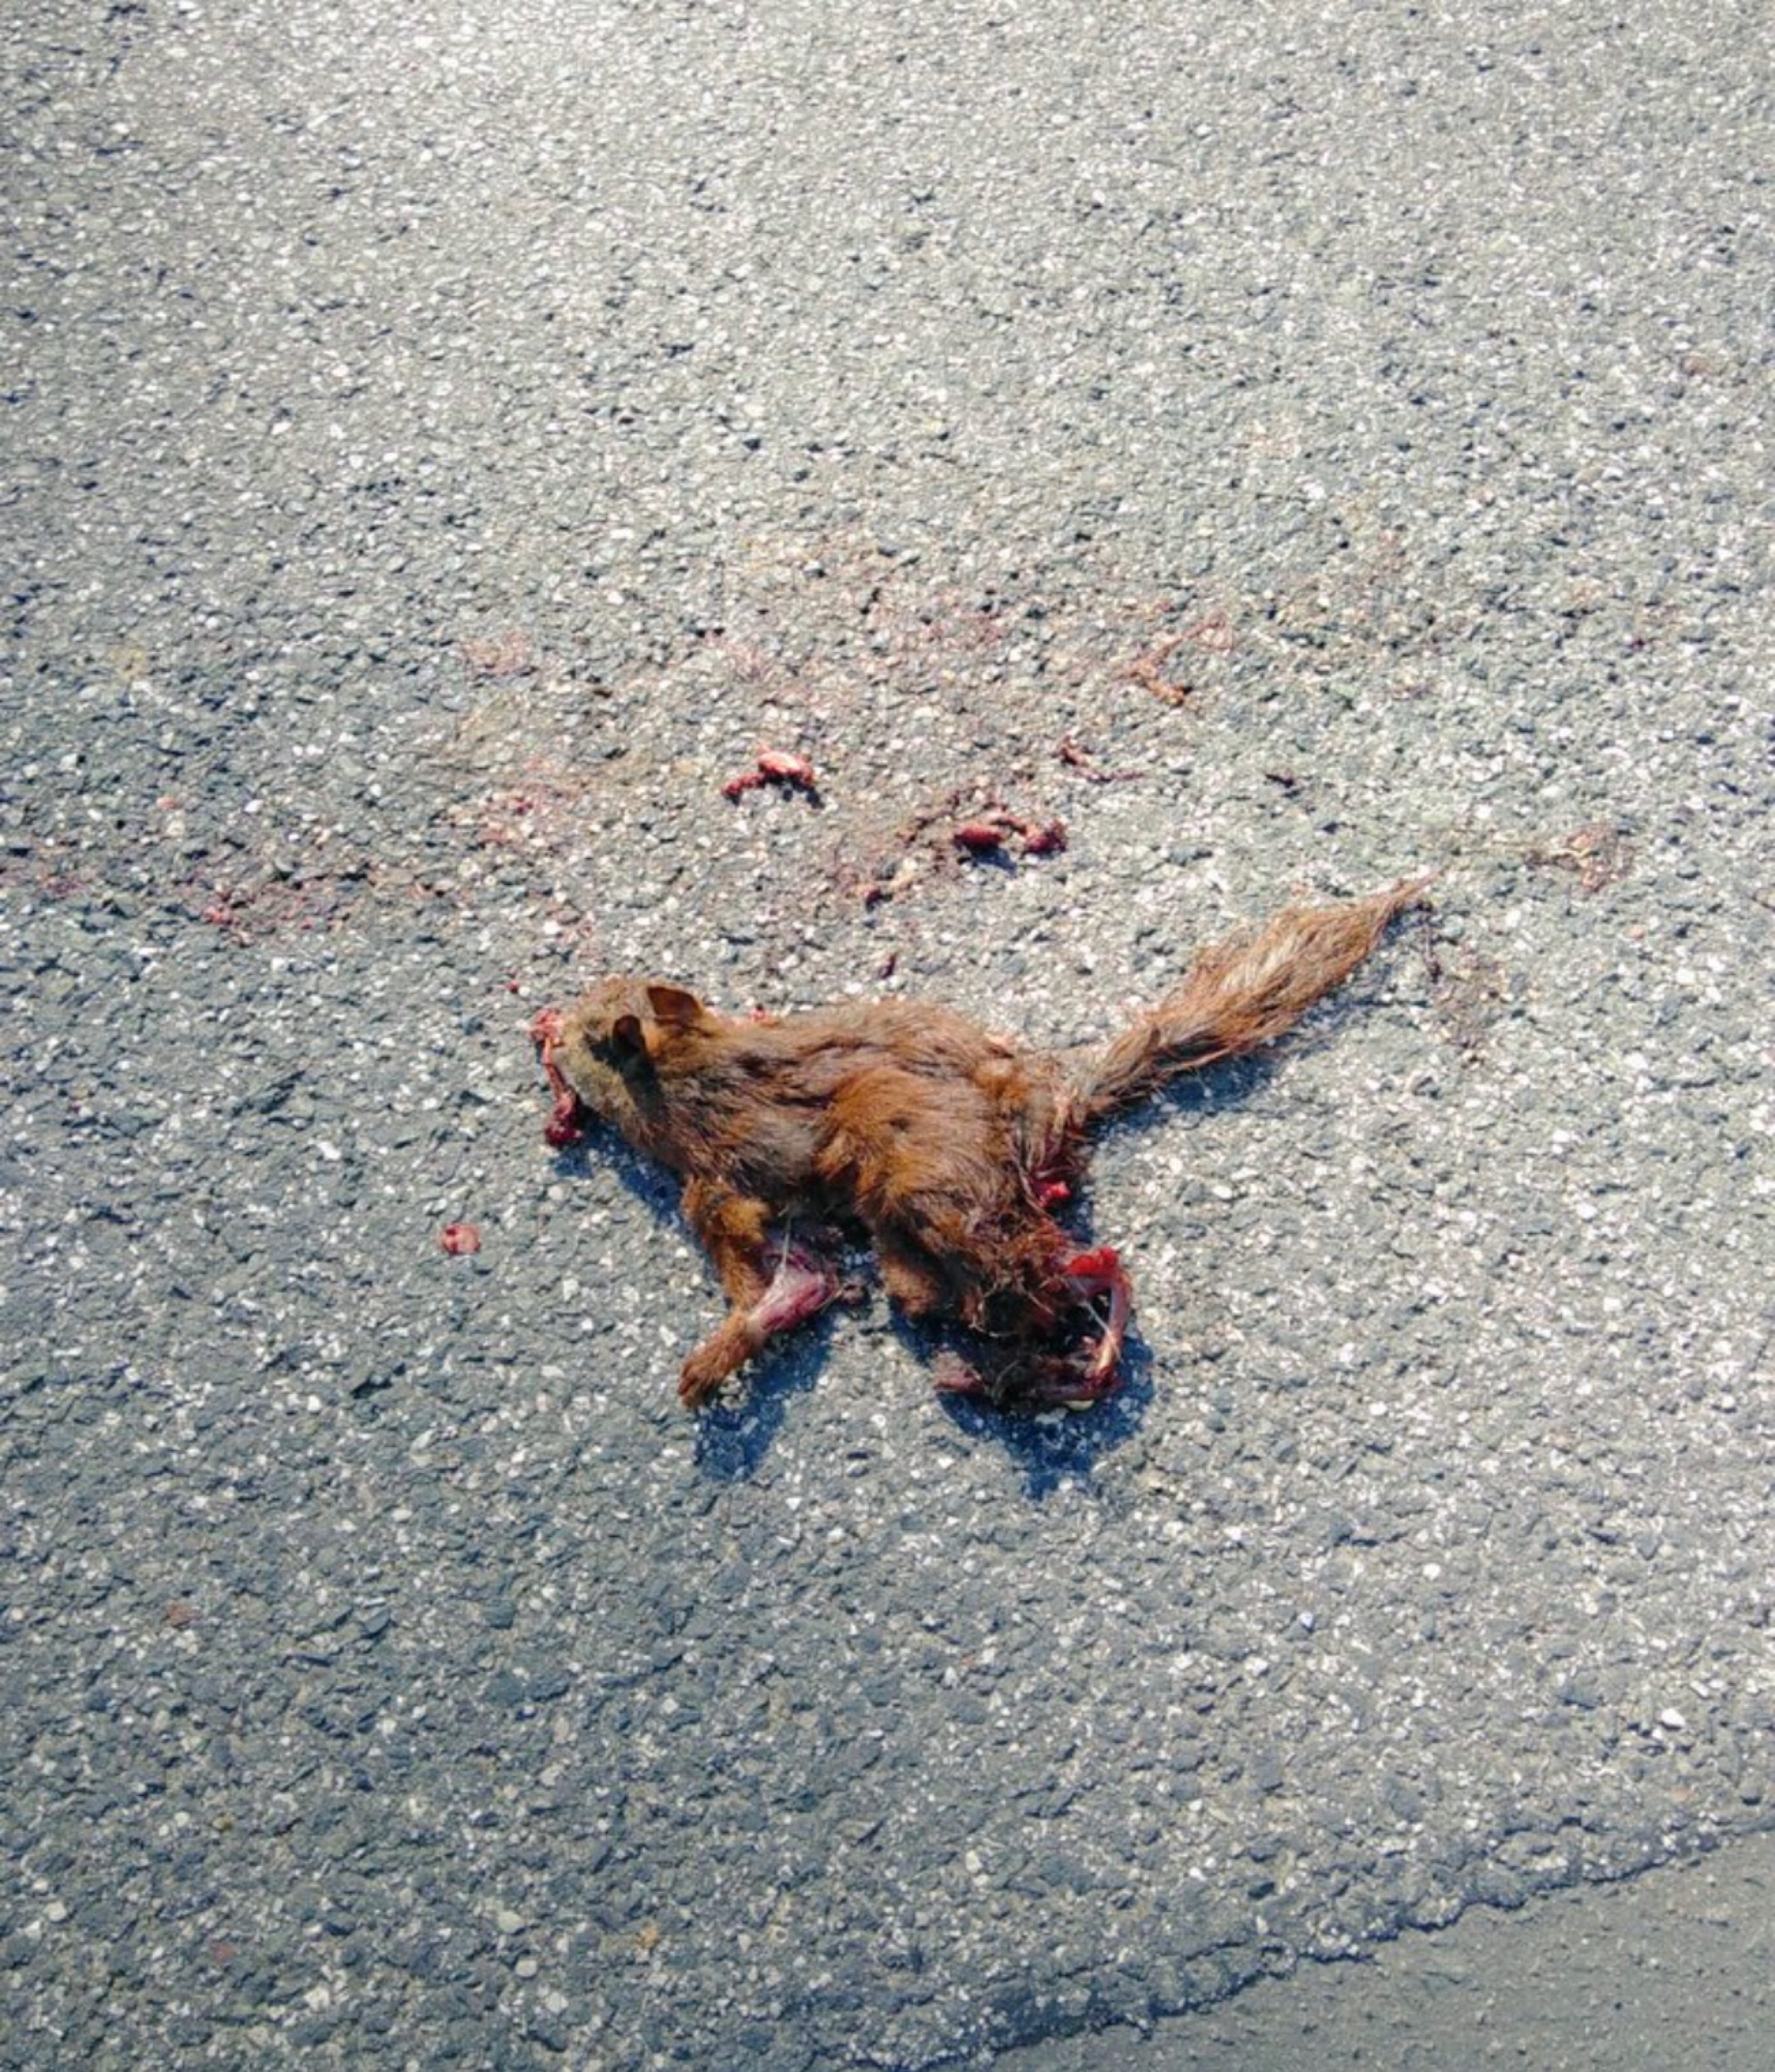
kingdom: Animalia
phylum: Chordata
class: Mammalia
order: Rodentia
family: Sciuridae
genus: Tamiasciurus
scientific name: Tamiasciurus hudsonicus
